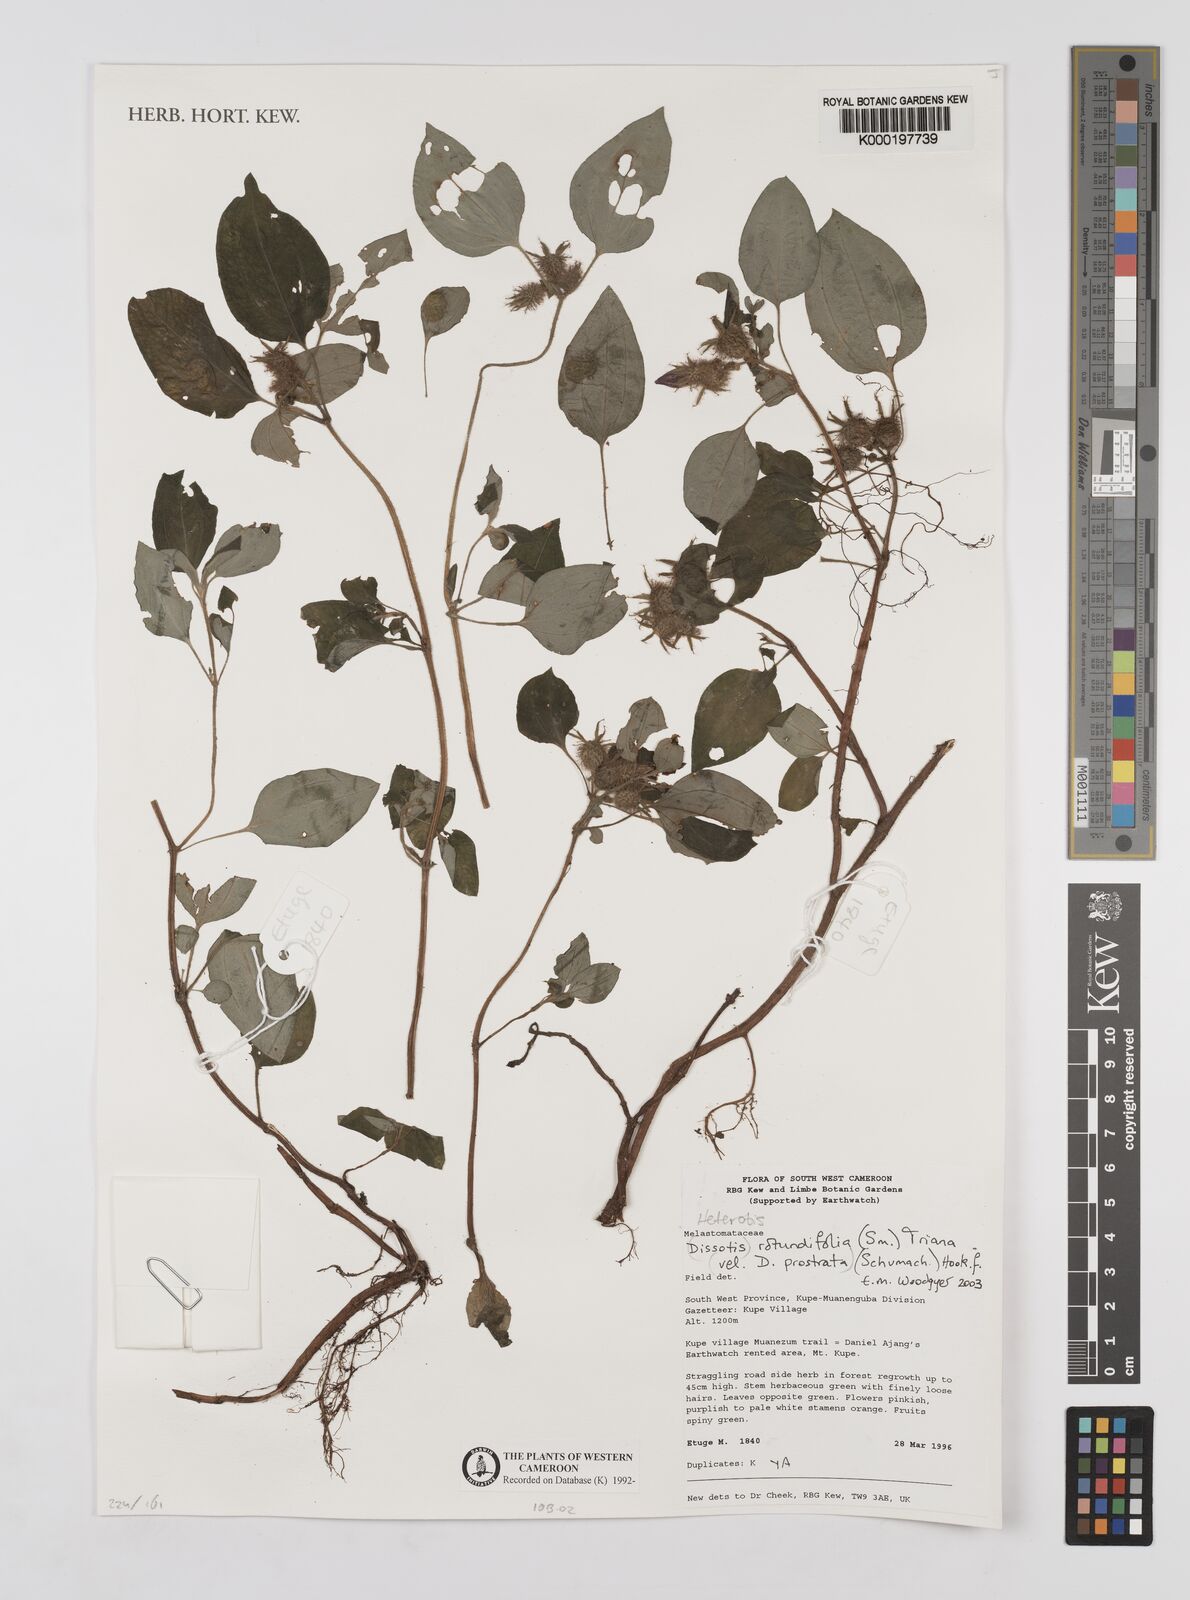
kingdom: Plantae
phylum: Tracheophyta
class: Magnoliopsida
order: Myrtales
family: Melastomataceae
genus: Dissotis
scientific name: Dissotis
